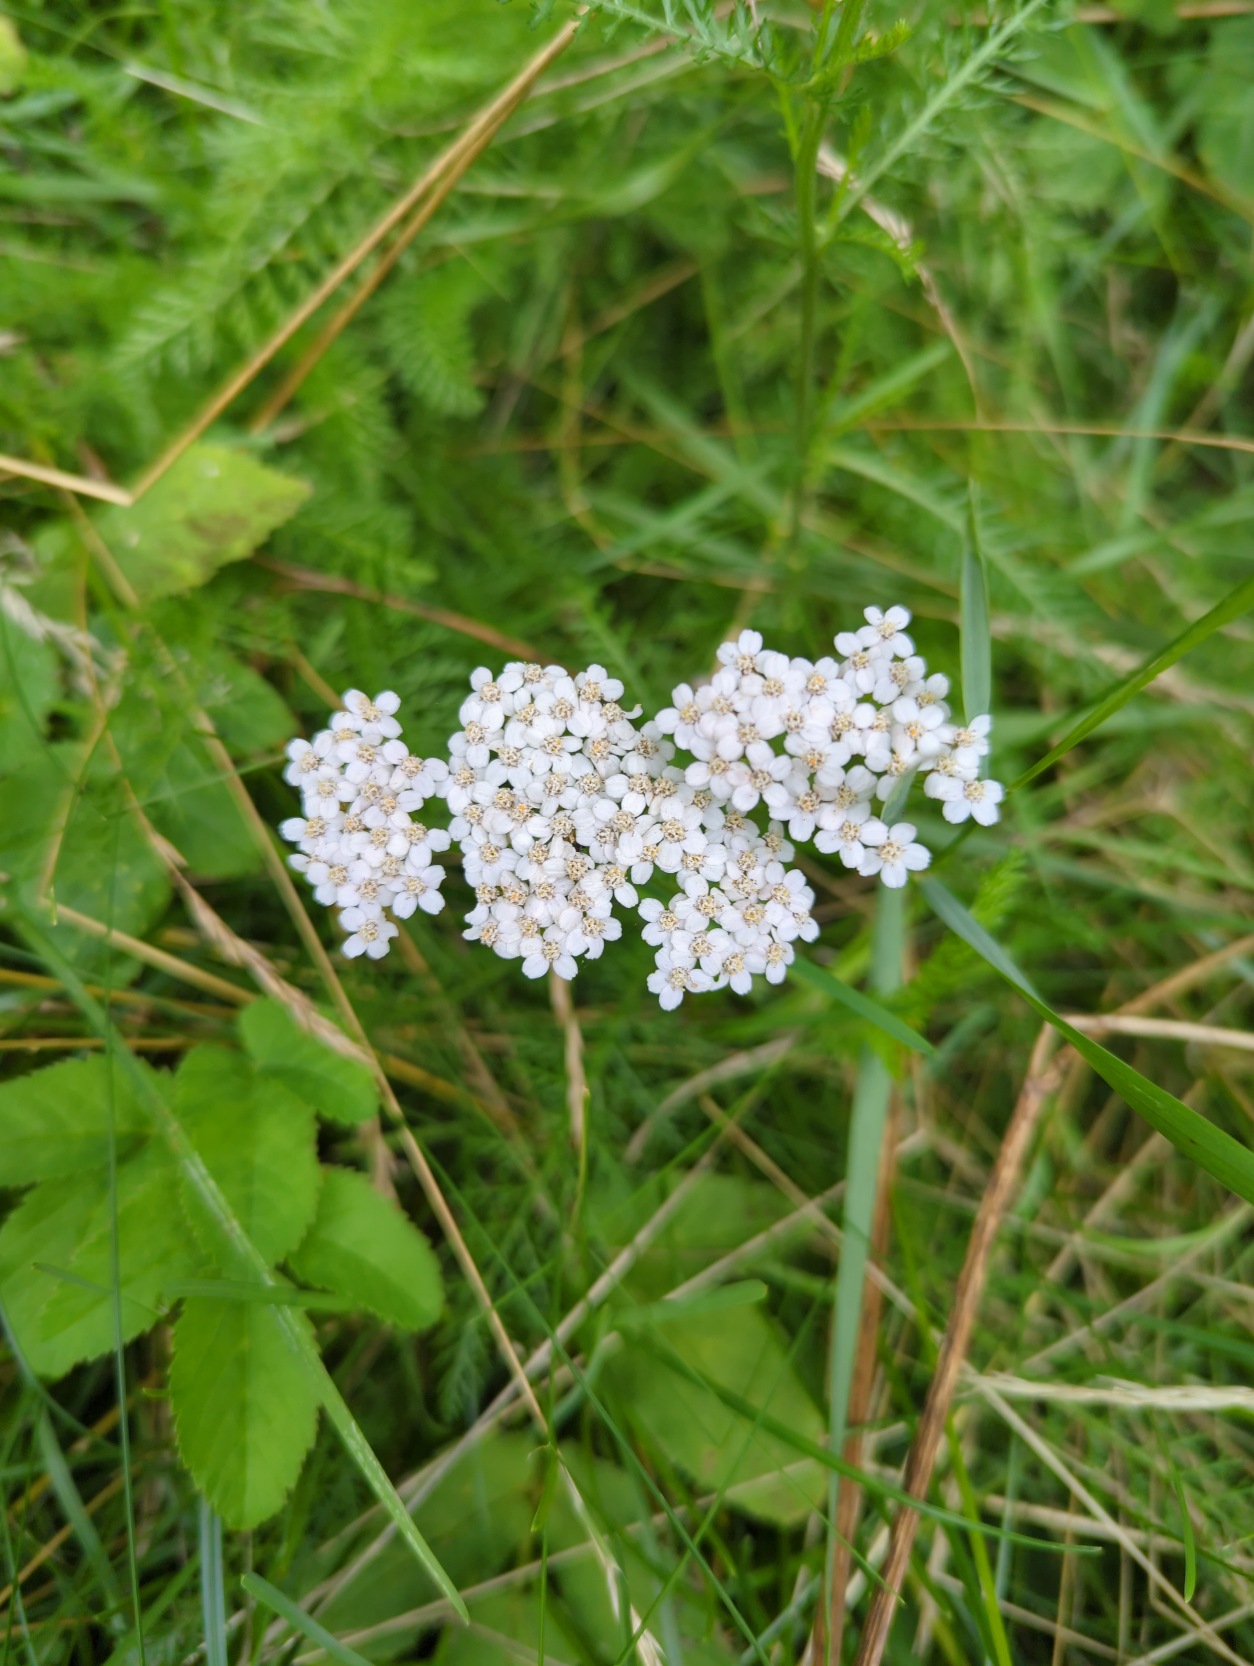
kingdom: Plantae
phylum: Tracheophyta
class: Magnoliopsida
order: Asterales
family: Asteraceae
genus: Achillea
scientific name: Achillea millefolium
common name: Almindelig røllike
